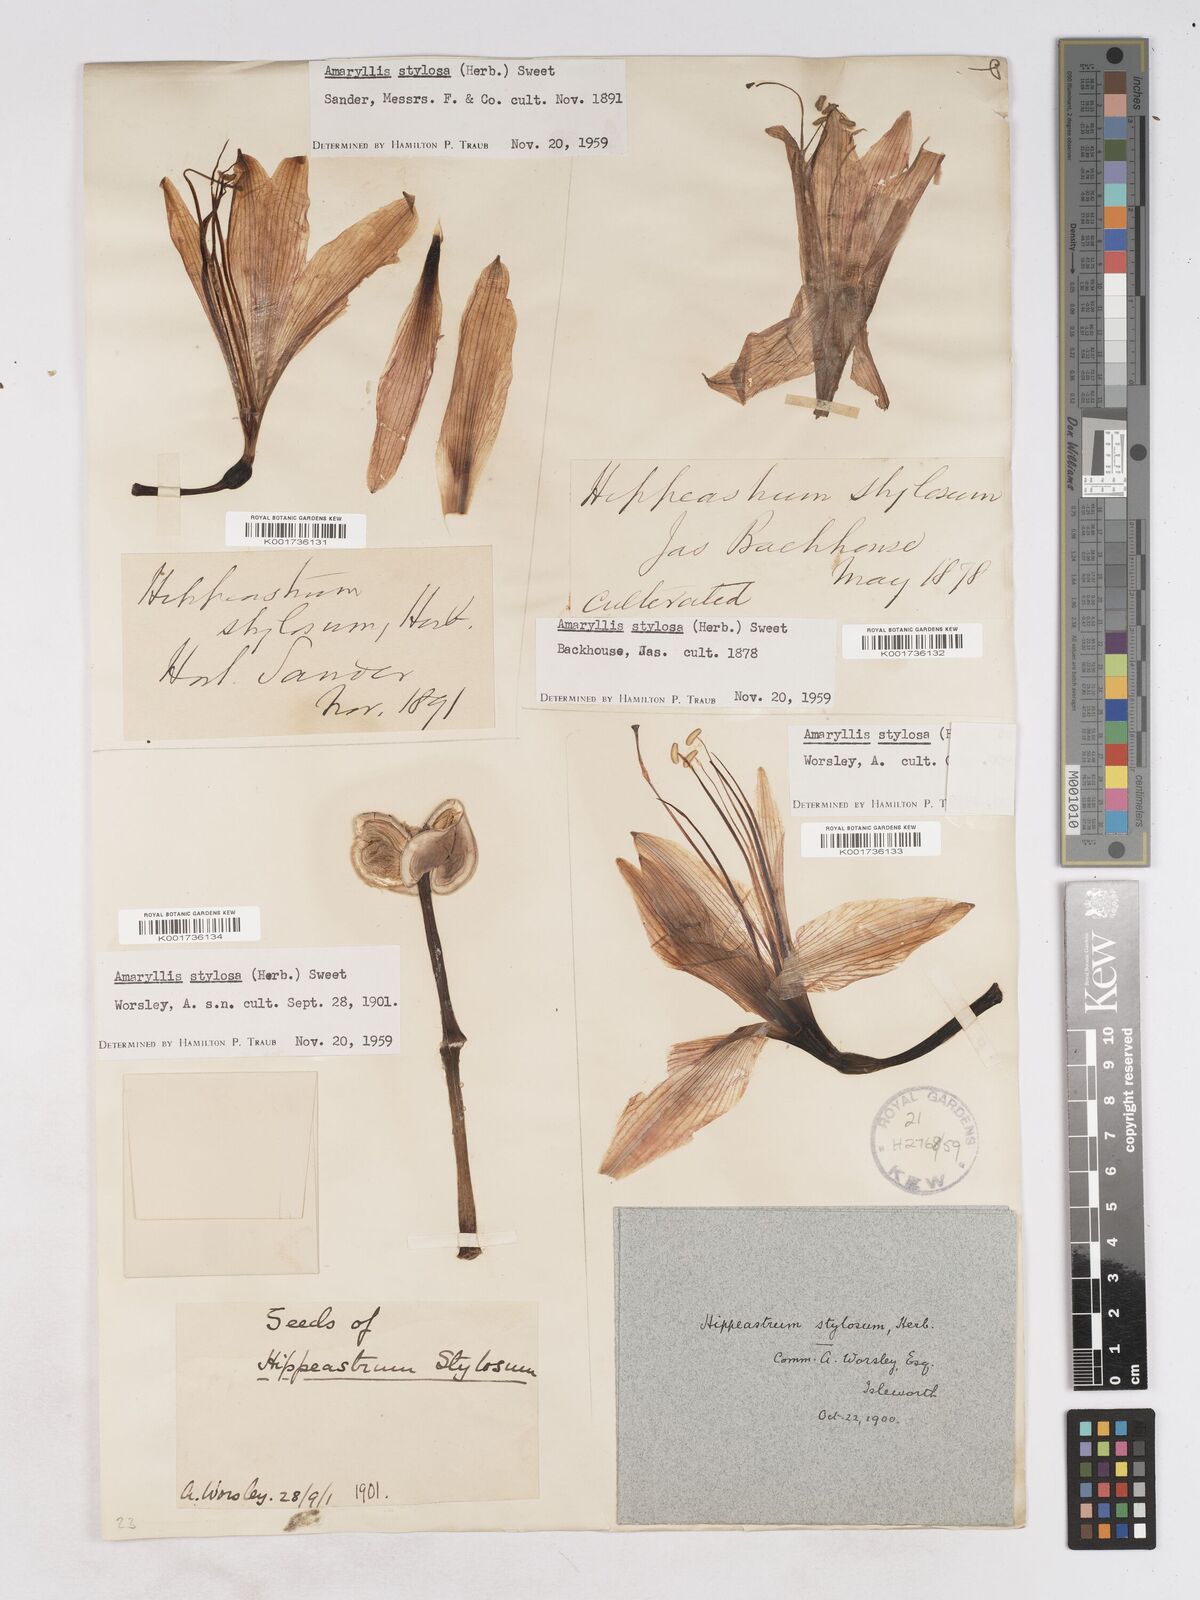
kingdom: Plantae
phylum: Tracheophyta
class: Liliopsida
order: Asparagales
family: Amaryllidaceae
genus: Hippeastrum
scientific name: Hippeastrum stylosum
